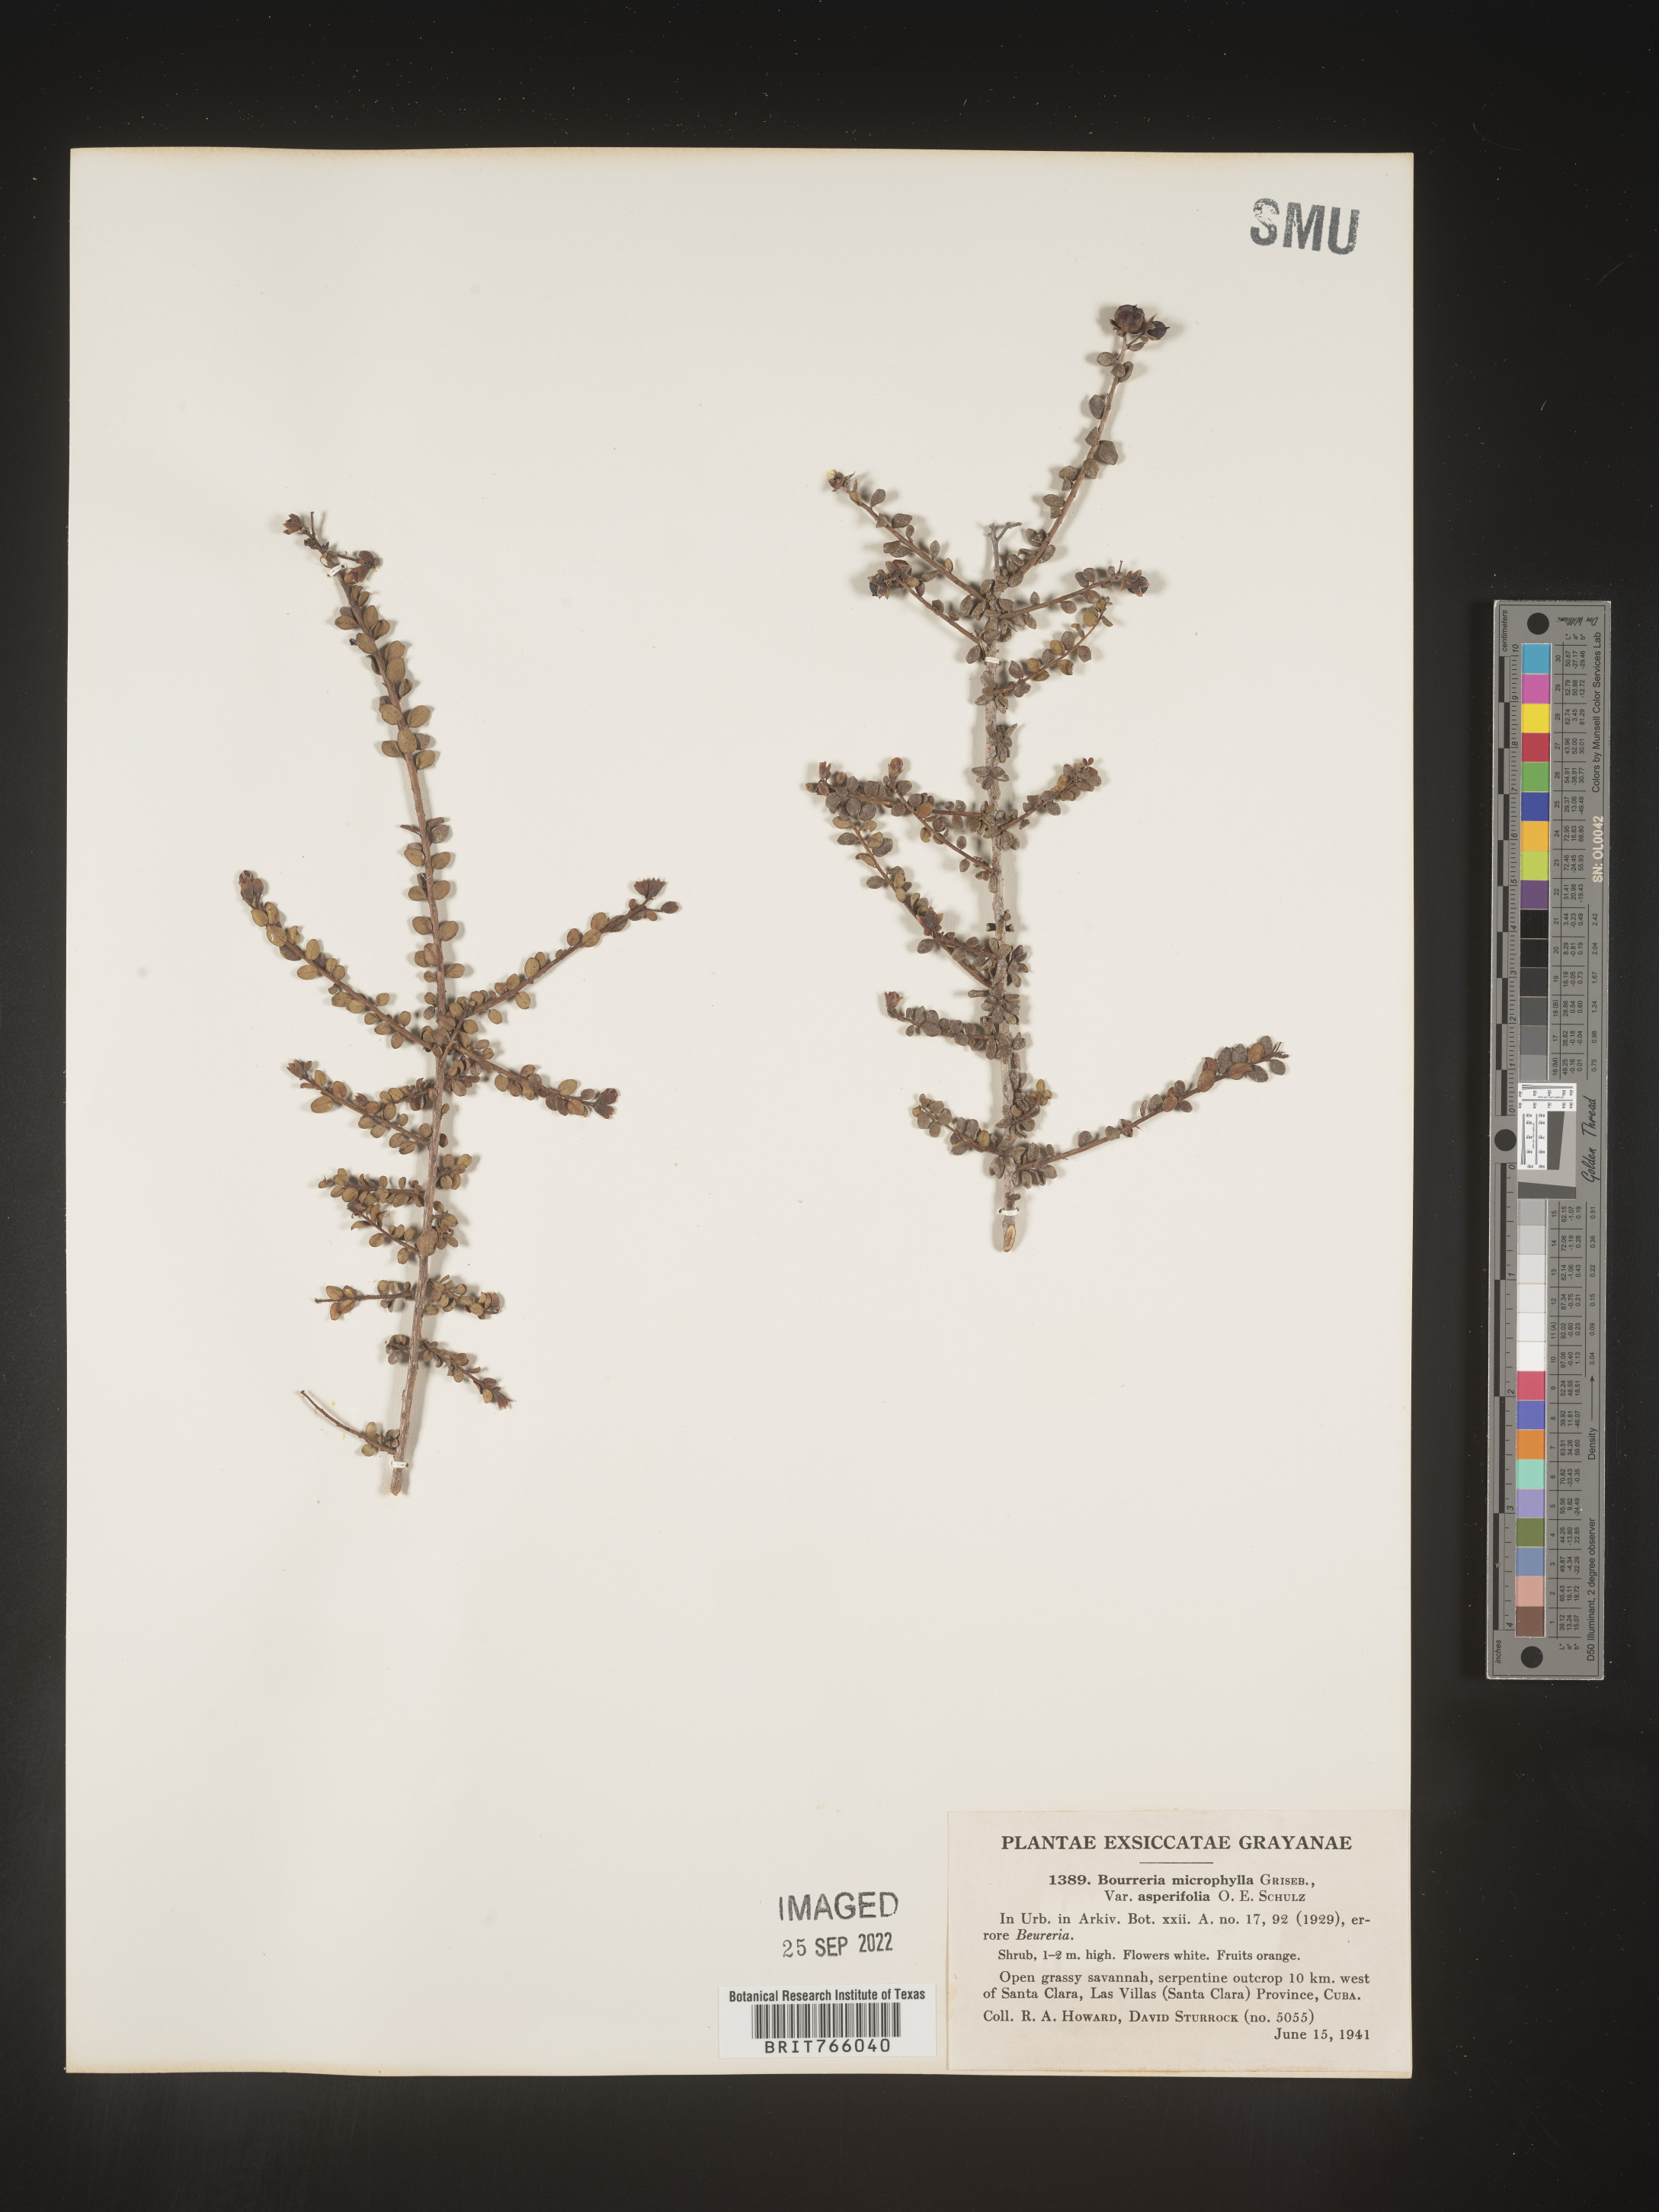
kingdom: Plantae
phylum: Tracheophyta
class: Magnoliopsida
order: Boraginales
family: Ehretiaceae
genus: Bourreria
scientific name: Bourreria
